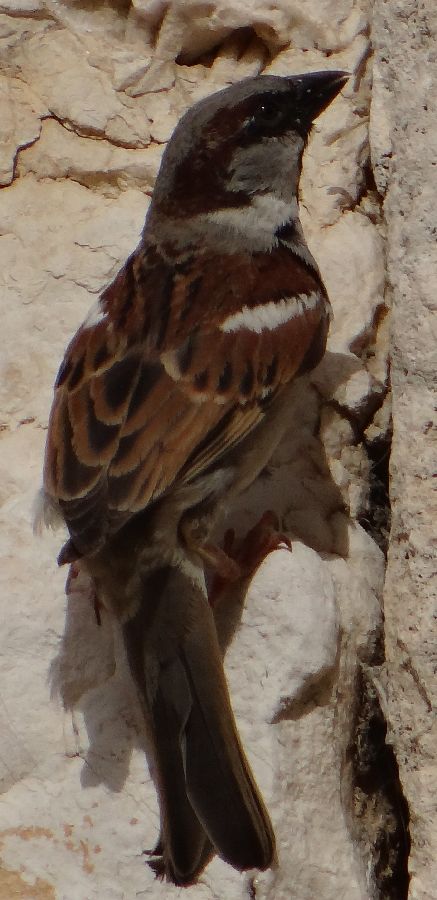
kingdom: Animalia
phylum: Chordata
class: Aves
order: Passeriformes
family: Passeridae
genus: Passer
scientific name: Passer domesticus
